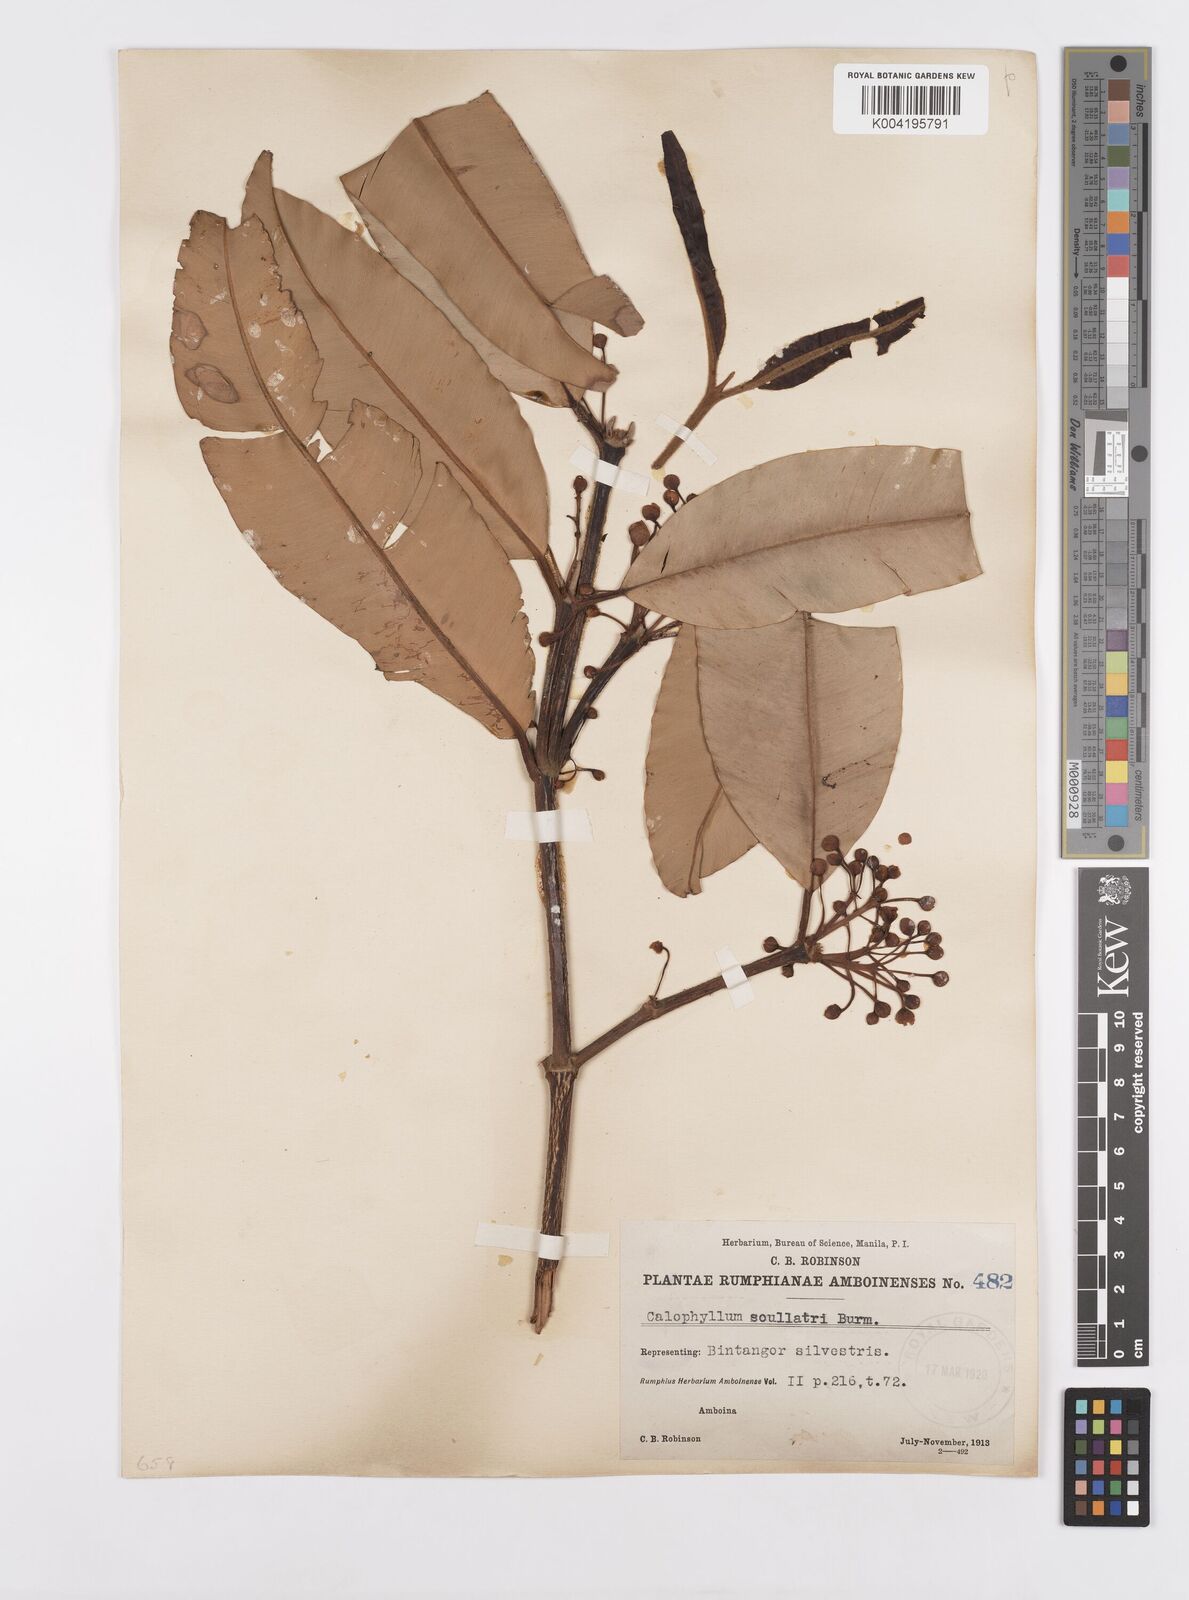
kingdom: Plantae
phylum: Tracheophyta
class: Magnoliopsida
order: Malpighiales
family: Calophyllaceae
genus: Calophyllum
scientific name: Calophyllum soulattri
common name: Bitangoor boonot
